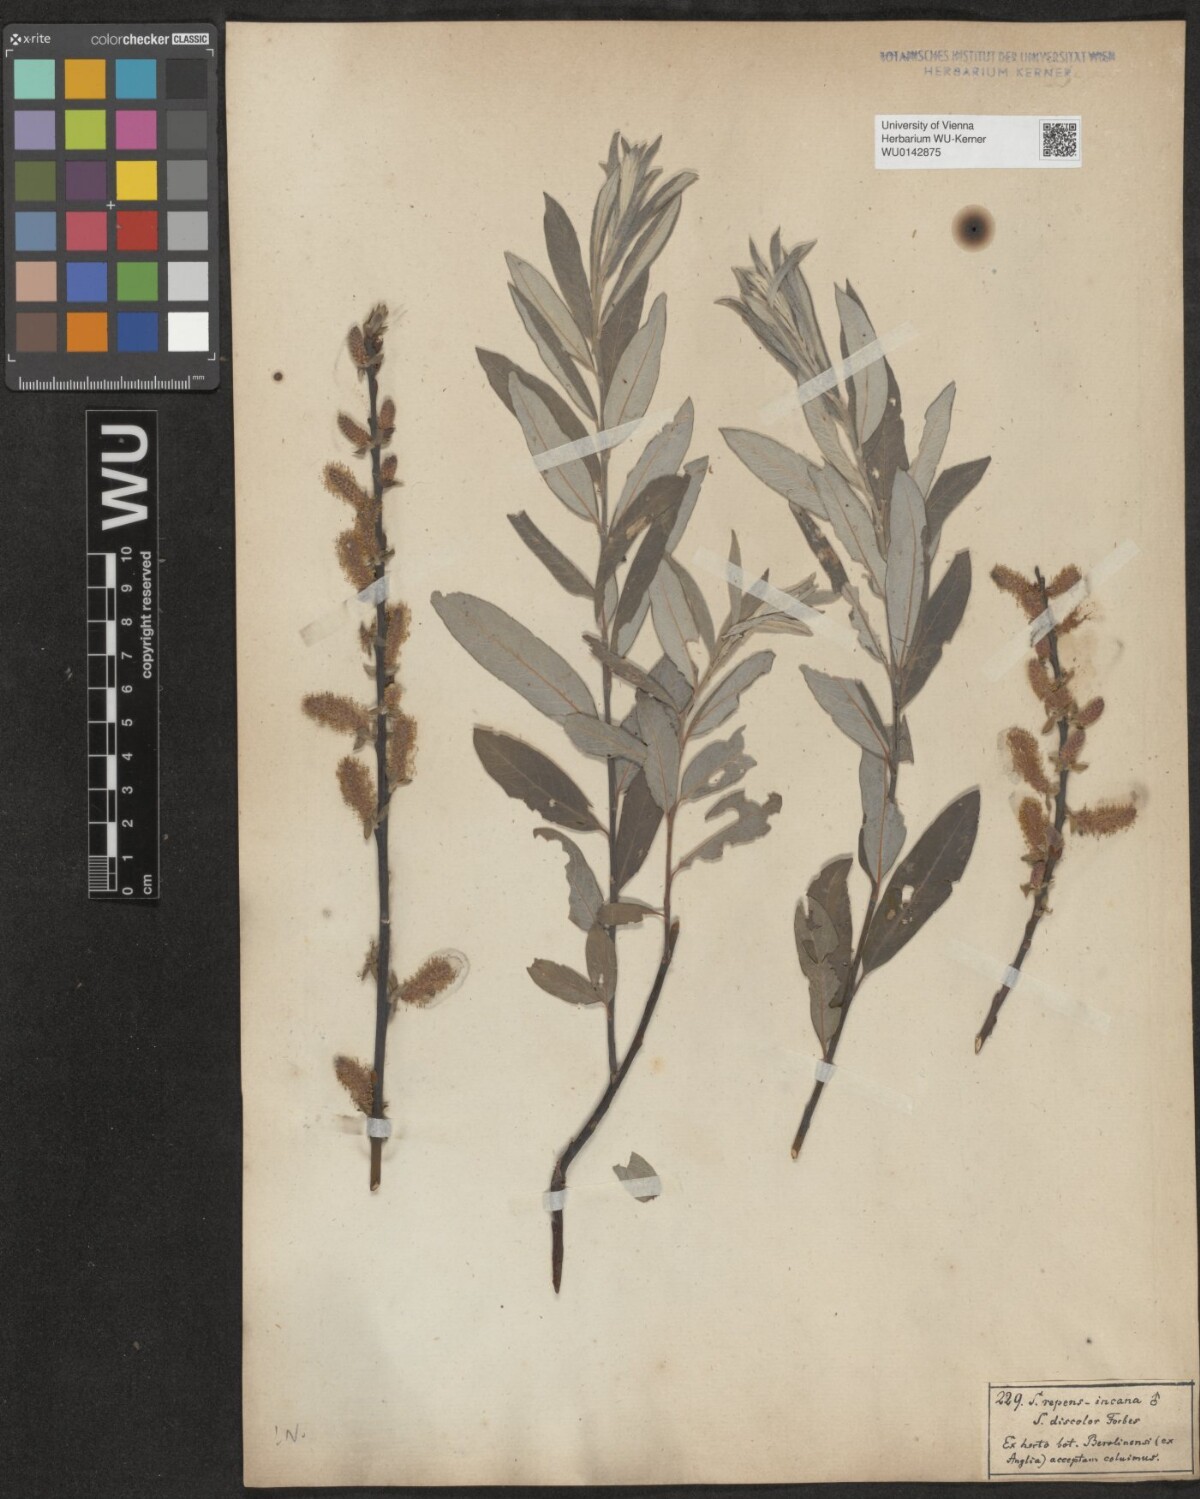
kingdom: Plantae
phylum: Tracheophyta
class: Magnoliopsida
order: Malpighiales
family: Salicaceae
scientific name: Salicaceae
